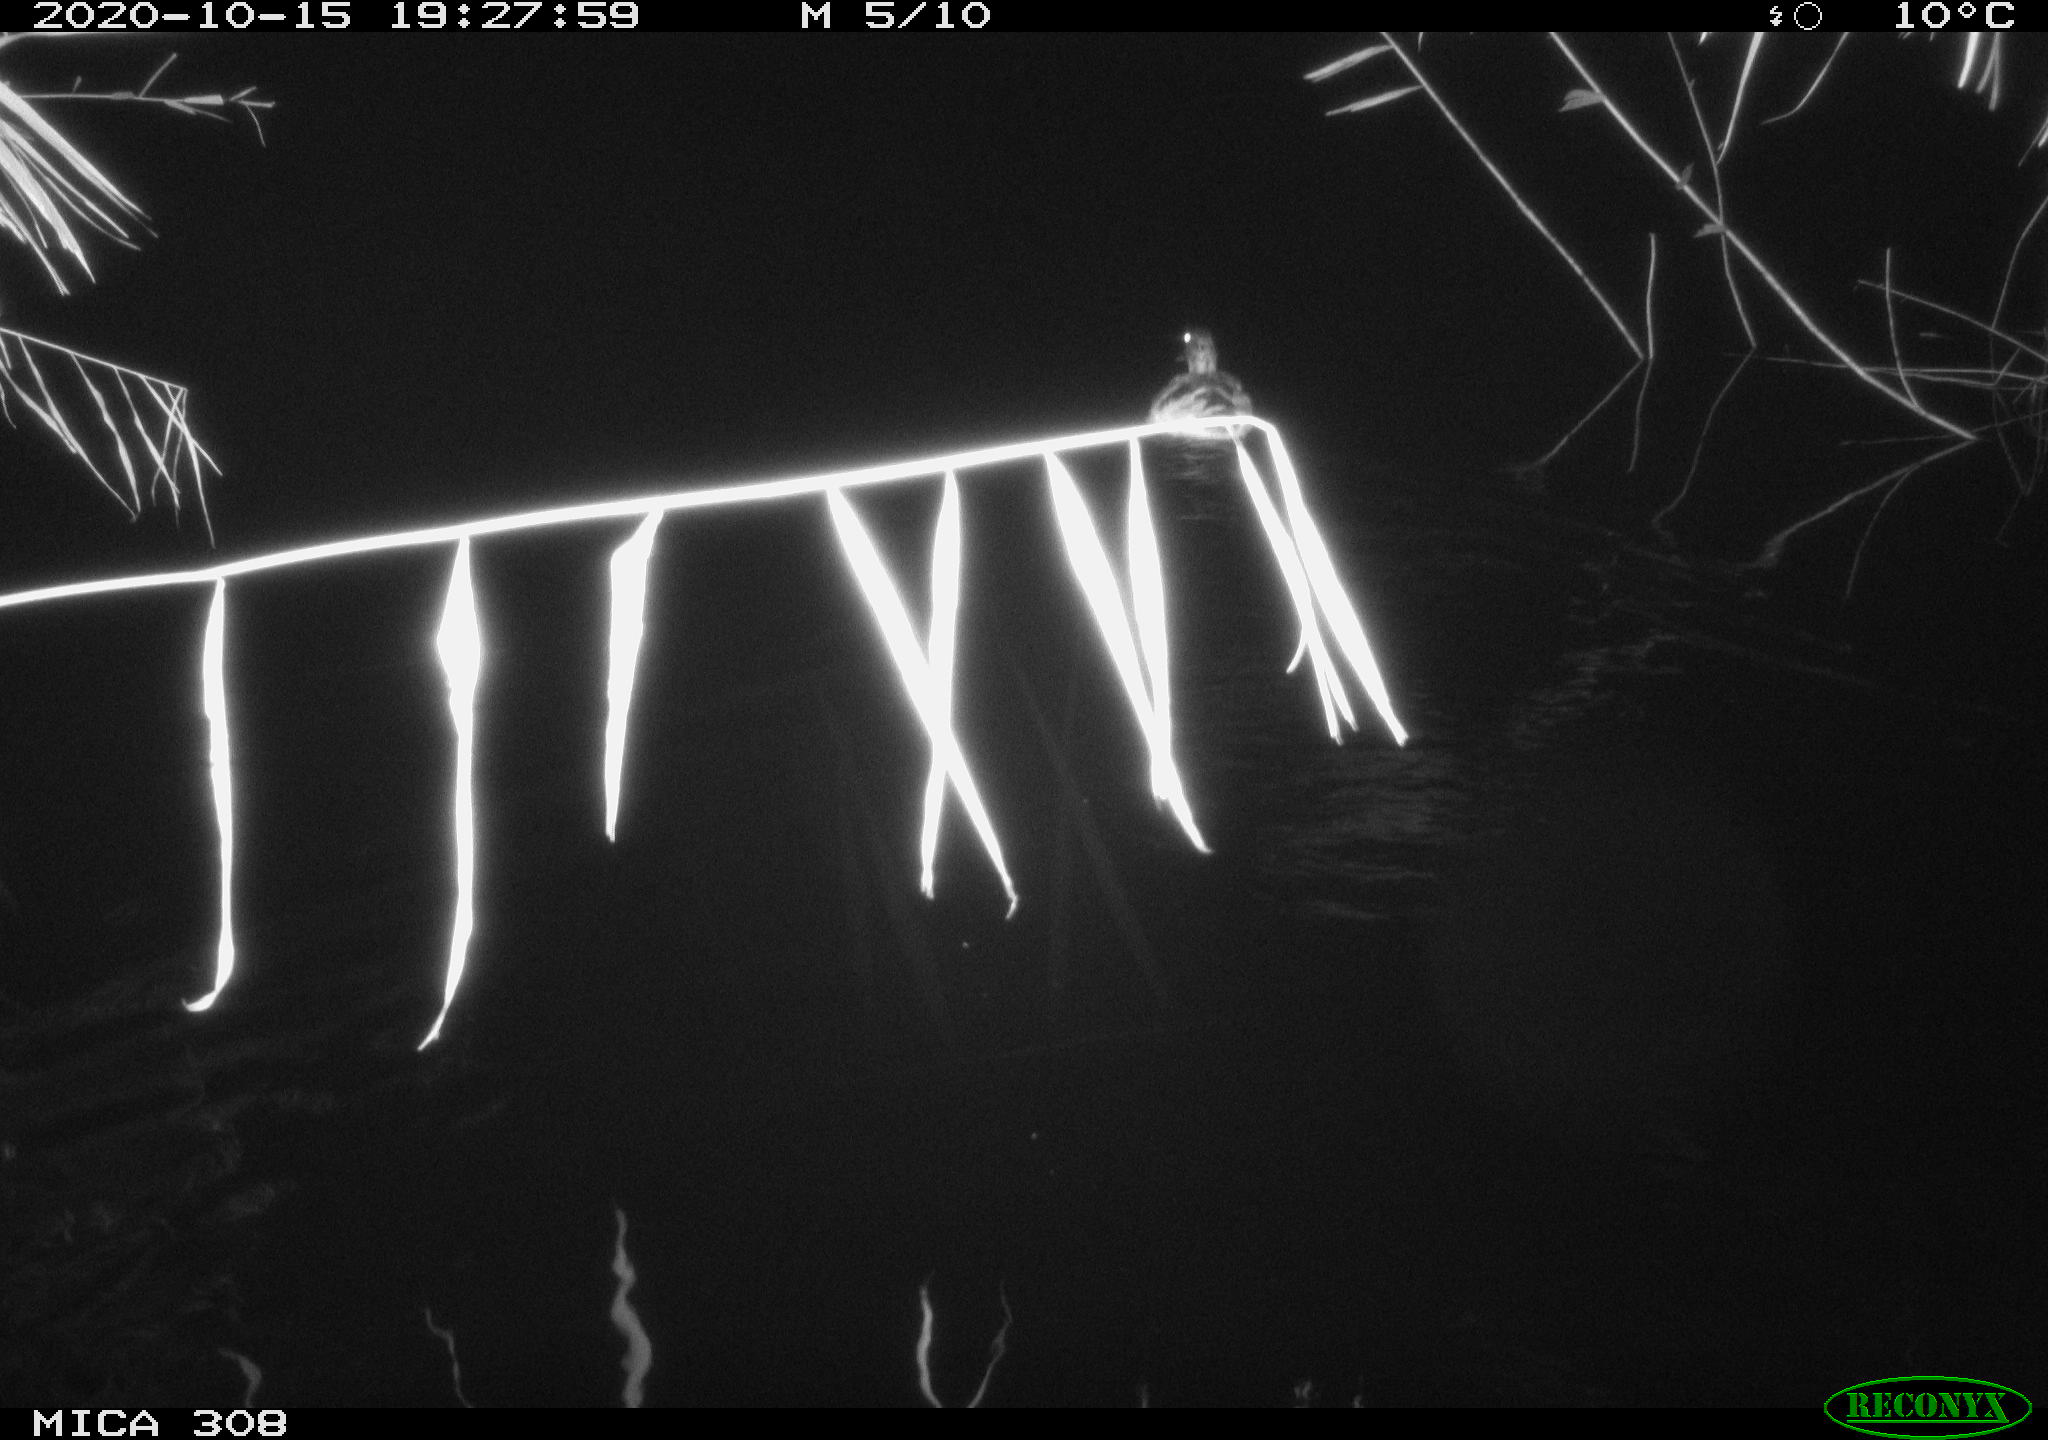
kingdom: Animalia
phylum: Chordata
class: Aves
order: Anseriformes
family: Anatidae
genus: Anas
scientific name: Anas platyrhynchos
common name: Mallard
